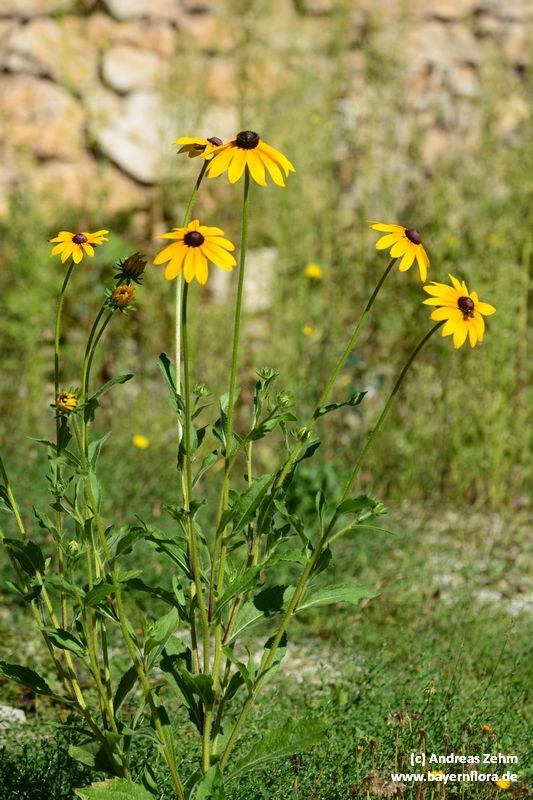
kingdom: Plantae
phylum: Tracheophyta
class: Magnoliopsida
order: Asterales
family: Asteraceae
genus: Rudbeckia
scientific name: Rudbeckia fulgida
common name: Perennial coneflower
